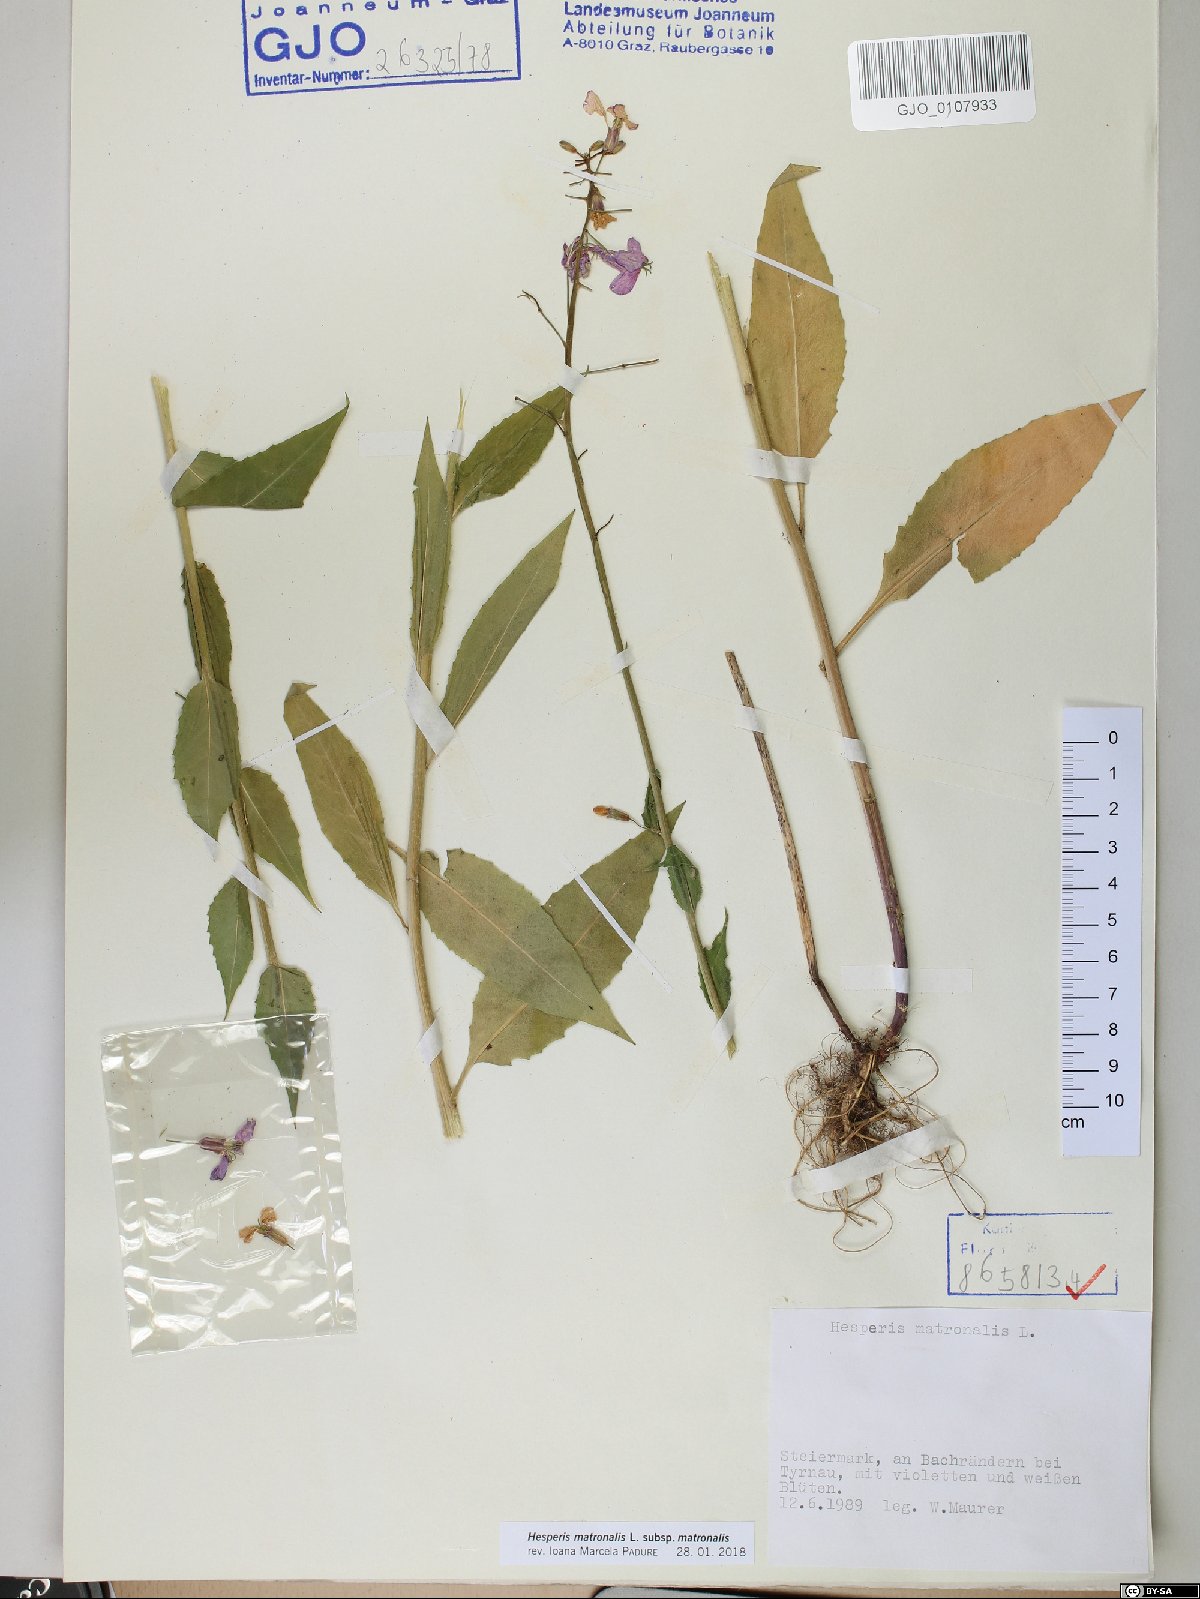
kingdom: Plantae
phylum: Tracheophyta
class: Magnoliopsida
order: Brassicales
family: Brassicaceae
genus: Hesperis
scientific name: Hesperis matronalis
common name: Dame's-violet
